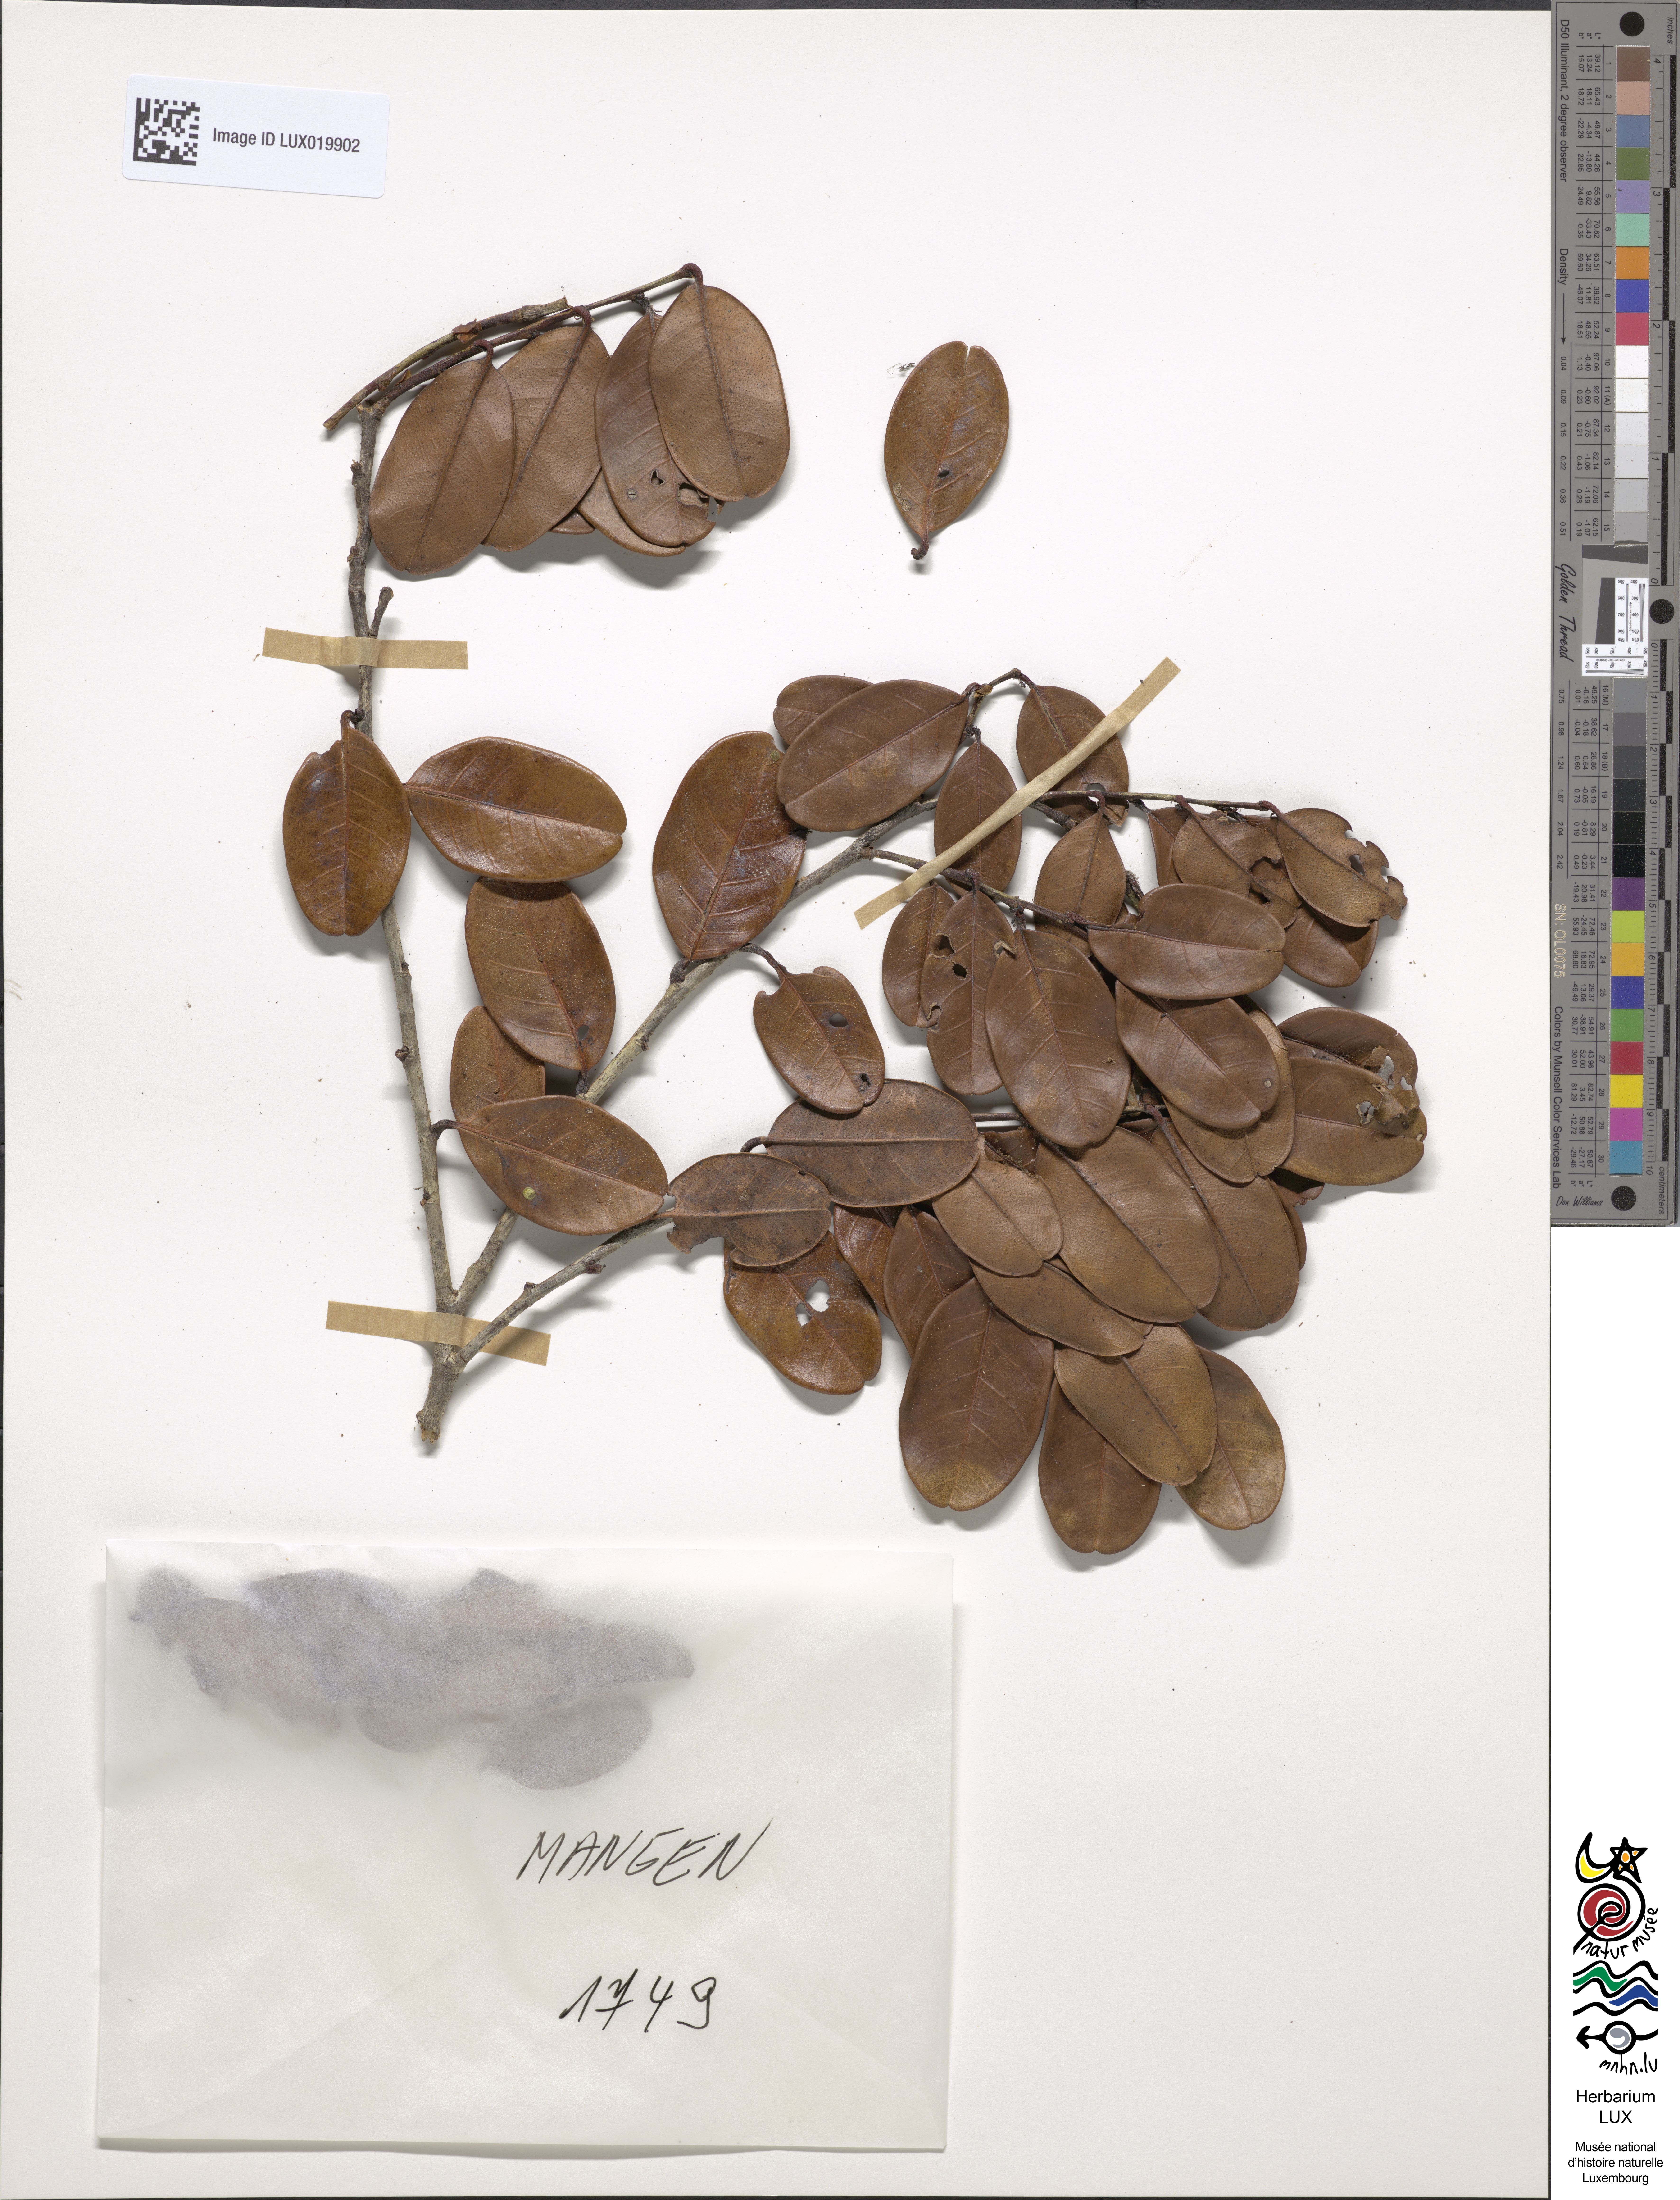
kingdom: Plantae
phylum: Tracheophyta
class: Magnoliopsida
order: Fagales
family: Nothofagaceae
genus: Nothofagus
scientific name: Nothofagus rubra
